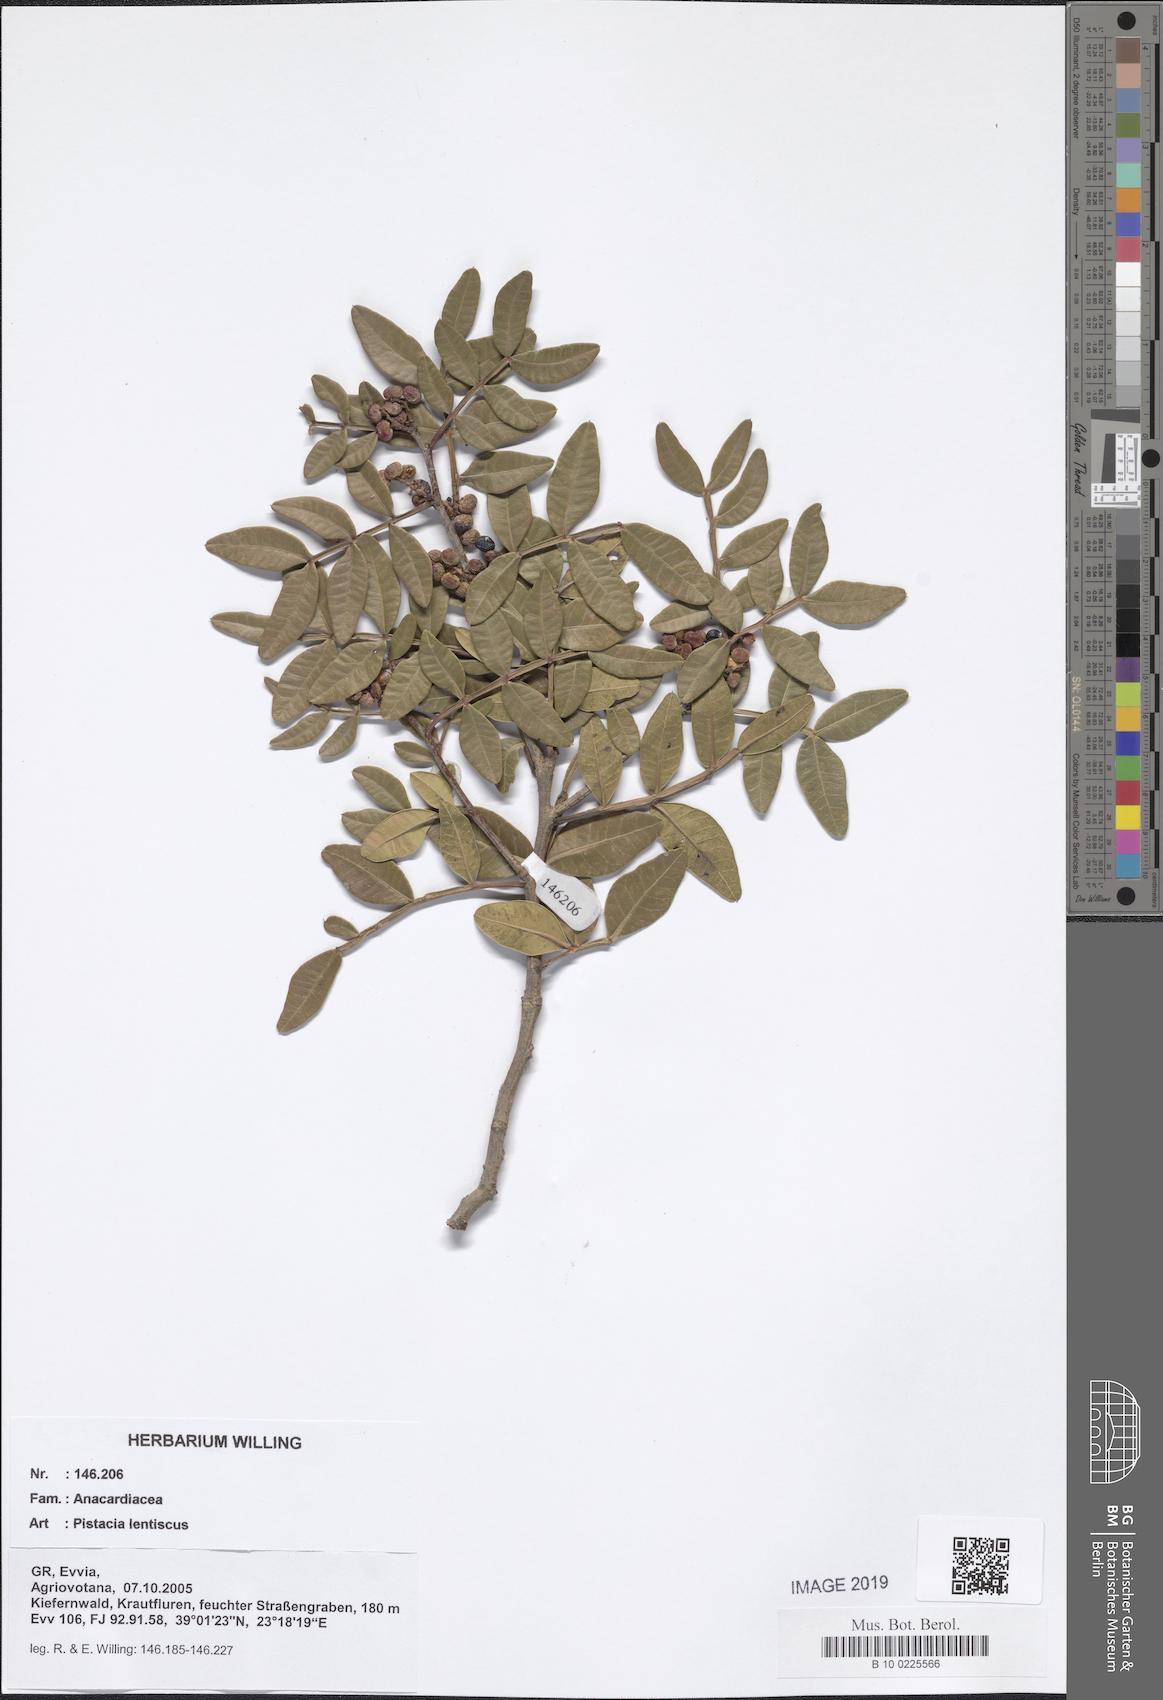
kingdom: Plantae
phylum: Tracheophyta
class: Magnoliopsida
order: Sapindales
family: Anacardiaceae
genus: Pistacia
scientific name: Pistacia lentiscus
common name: Lentisk
